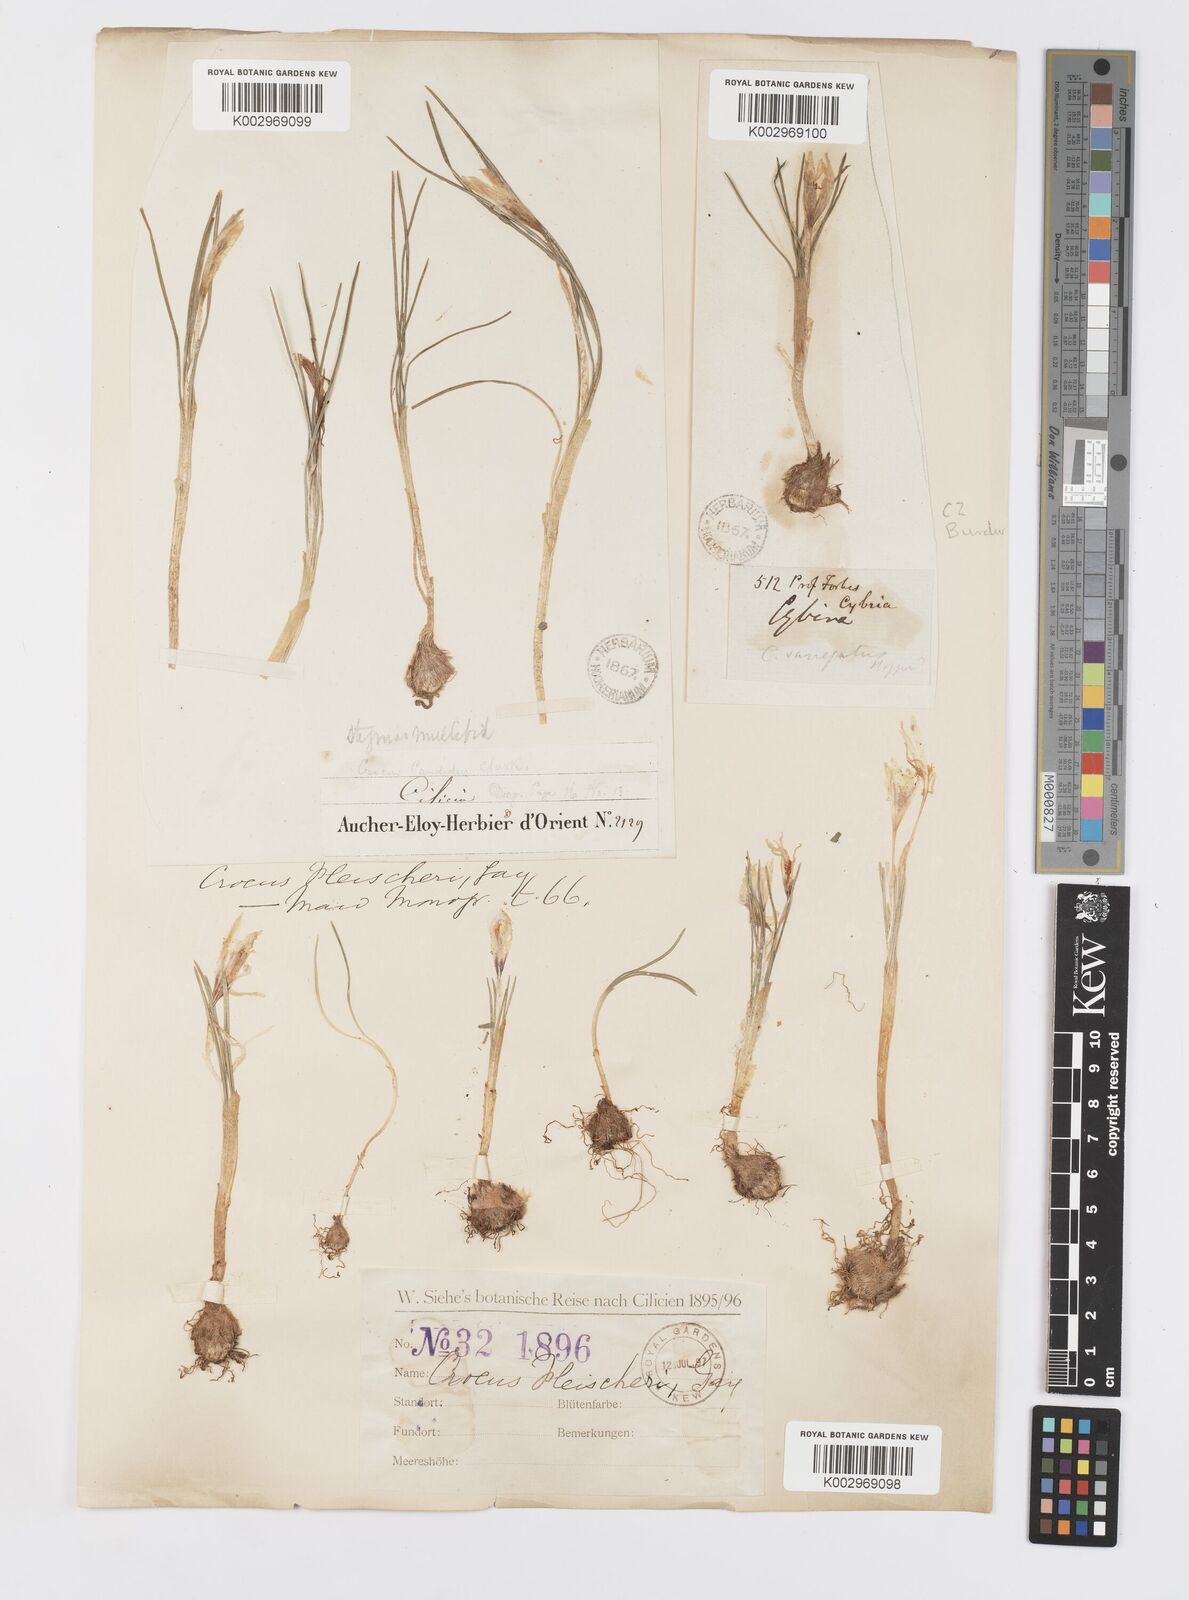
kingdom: Plantae
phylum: Tracheophyta
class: Liliopsida
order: Asparagales
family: Iridaceae
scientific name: Iridaceae
